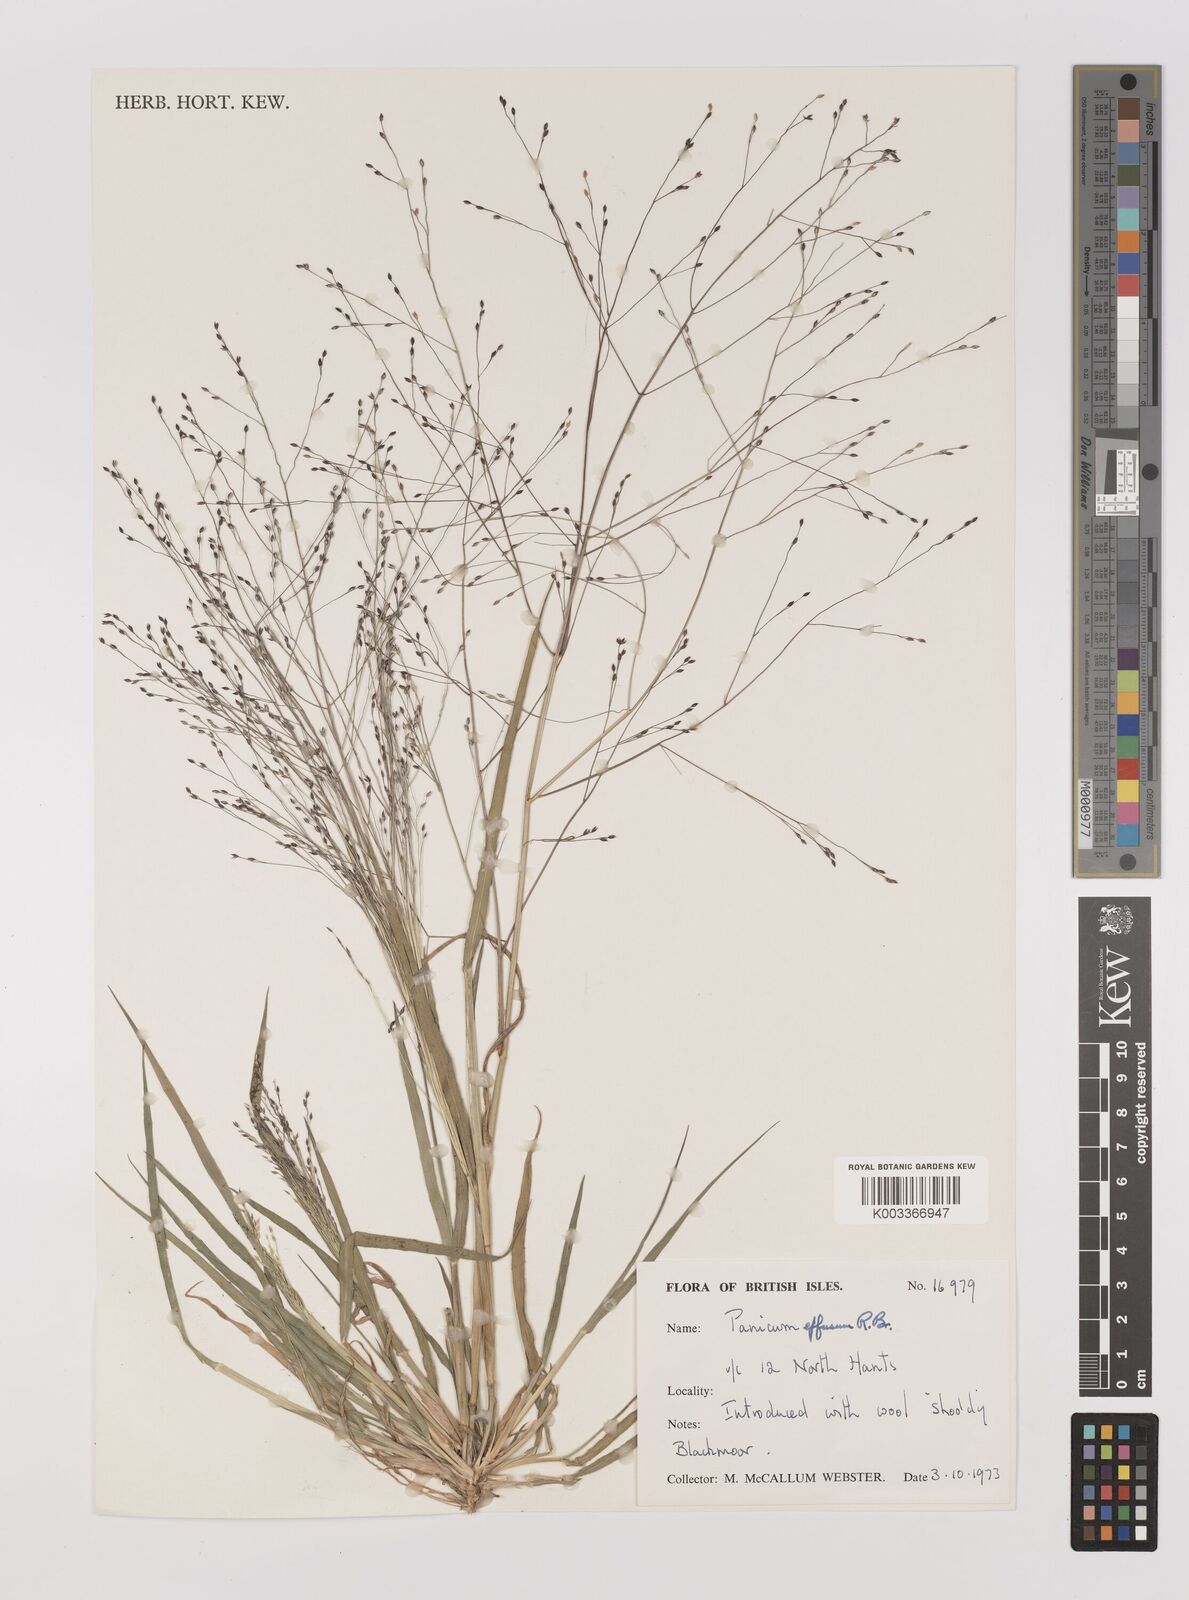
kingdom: Plantae
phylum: Tracheophyta
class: Liliopsida
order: Poales
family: Poaceae
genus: Panicum
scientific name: Panicum effusum
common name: Hairy panic grass
